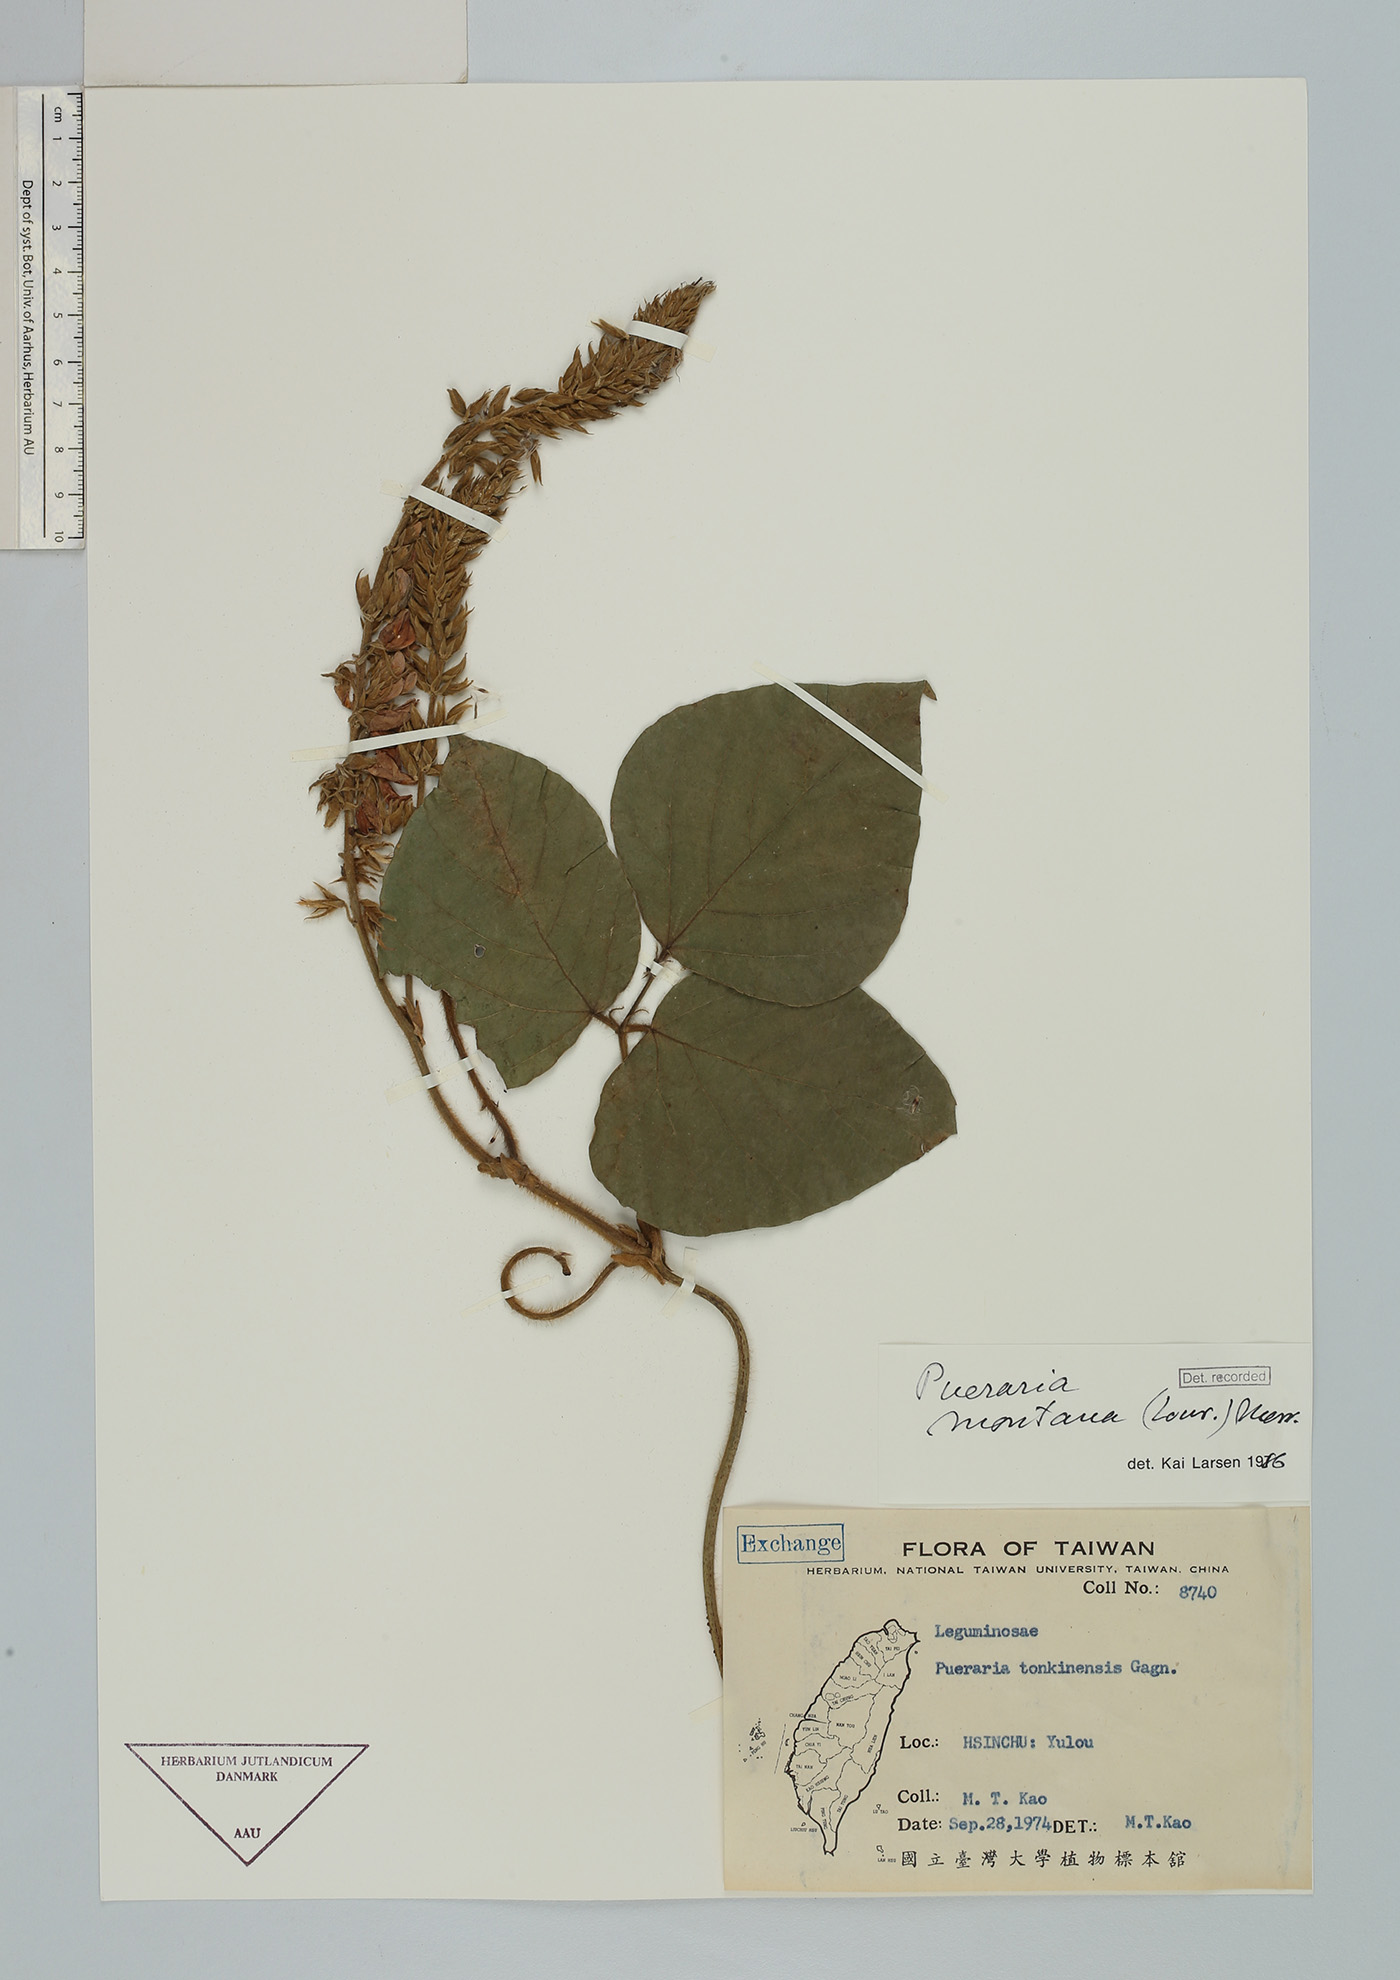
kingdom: Plantae
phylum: Tracheophyta
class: Magnoliopsida
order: Fabales
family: Fabaceae
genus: Pueraria
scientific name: Pueraria montana
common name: Kudzu
